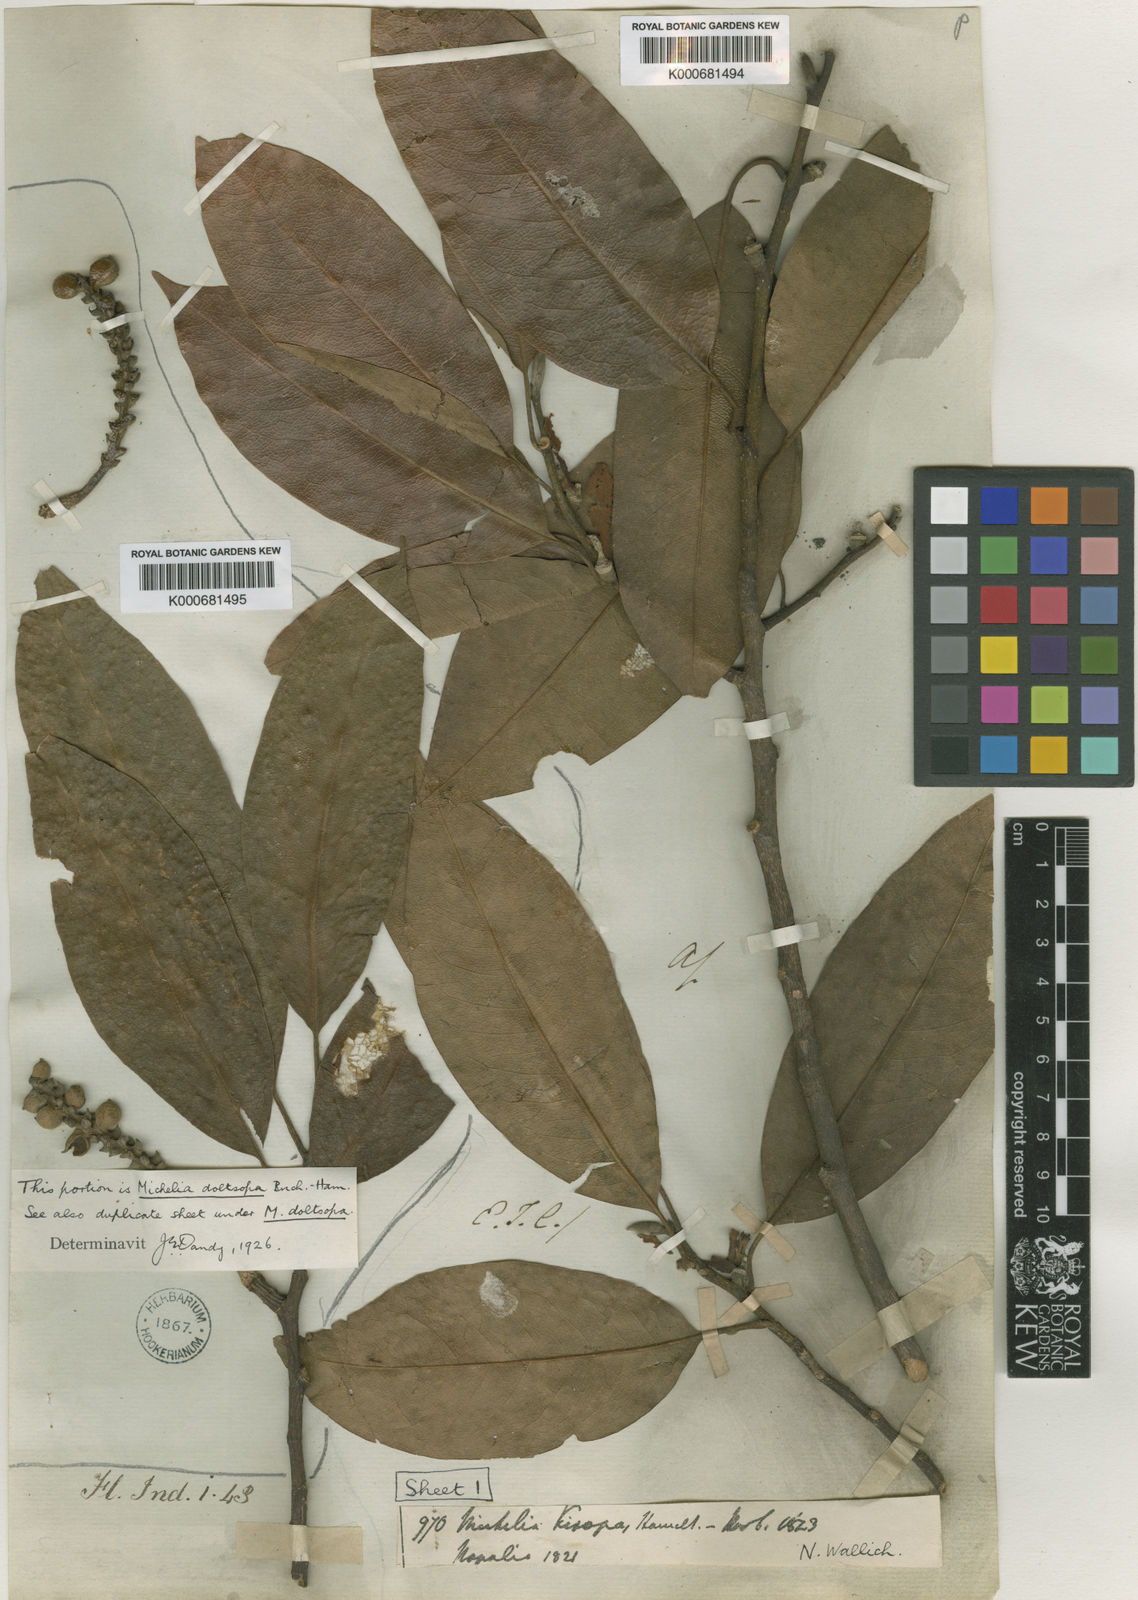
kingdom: Plantae
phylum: Tracheophyta
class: Magnoliopsida
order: Magnoliales
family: Magnoliaceae
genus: Magnolia
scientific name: Magnolia doltsopa
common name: Sweet michelia
